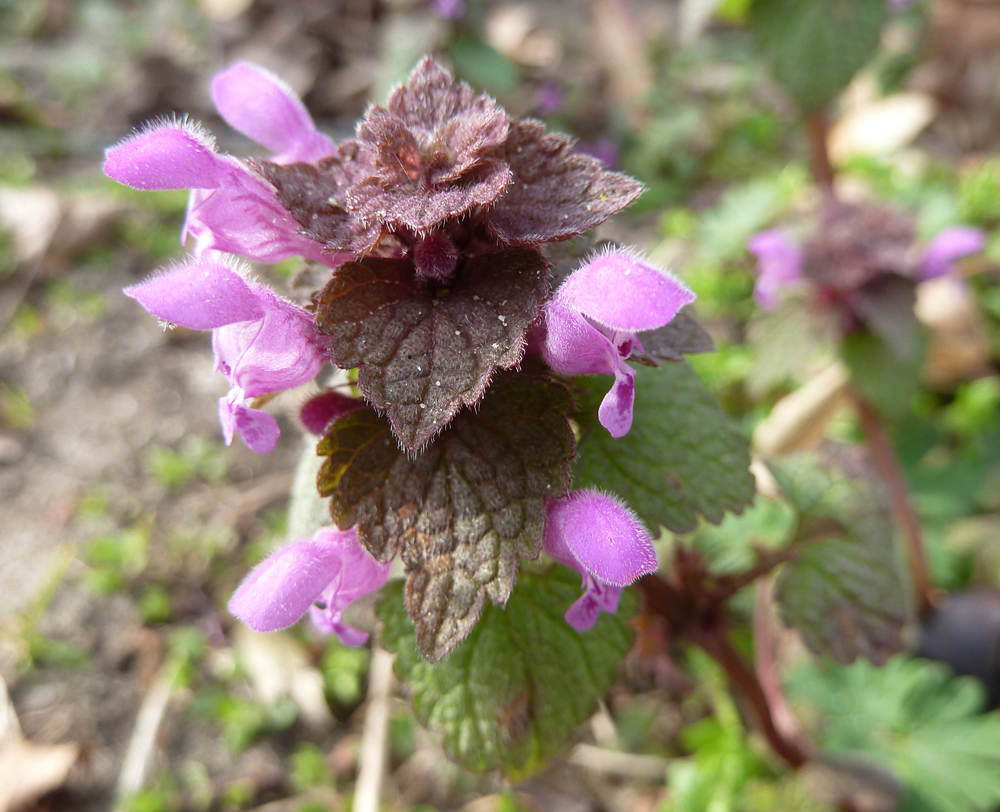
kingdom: Plantae
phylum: Tracheophyta
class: Magnoliopsida
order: Lamiales
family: Lamiaceae
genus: Lamium
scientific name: Lamium purpureum
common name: Red dead-nettle
